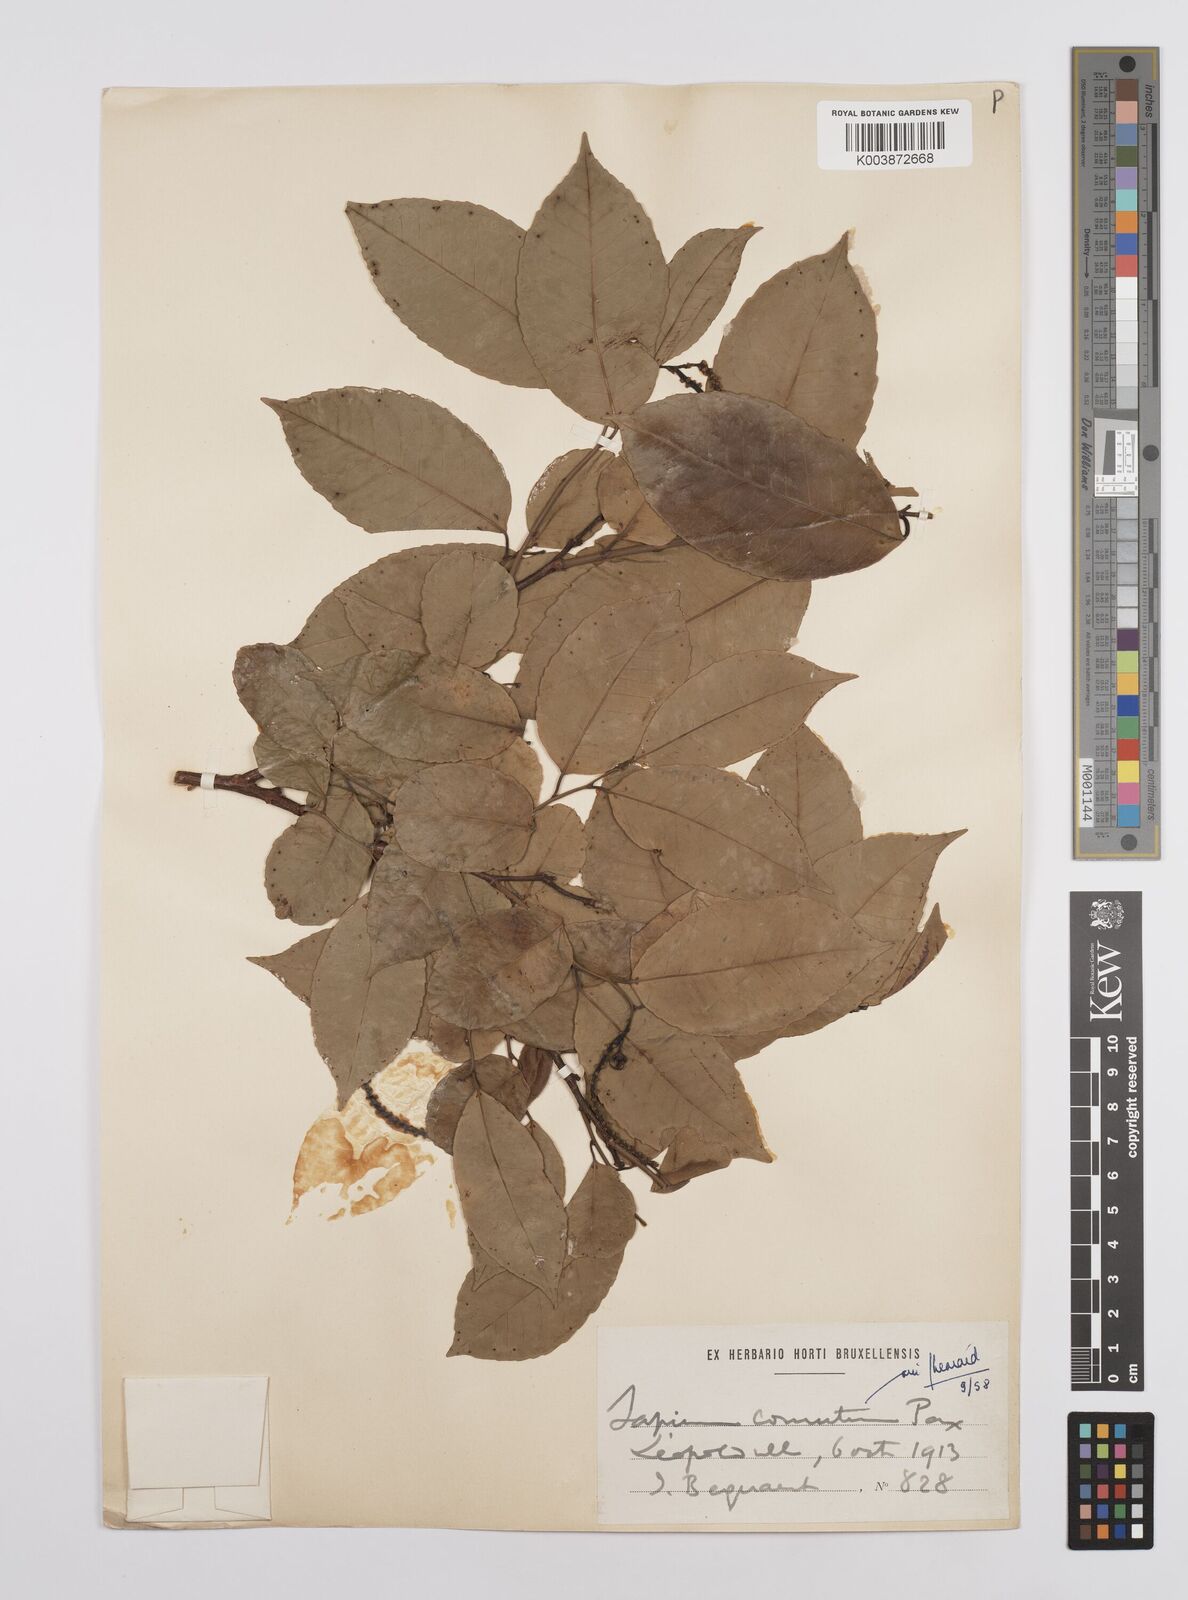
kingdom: Plantae
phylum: Tracheophyta
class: Magnoliopsida
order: Malpighiales
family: Euphorbiaceae
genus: Sclerocroton
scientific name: Sclerocroton cornutus
